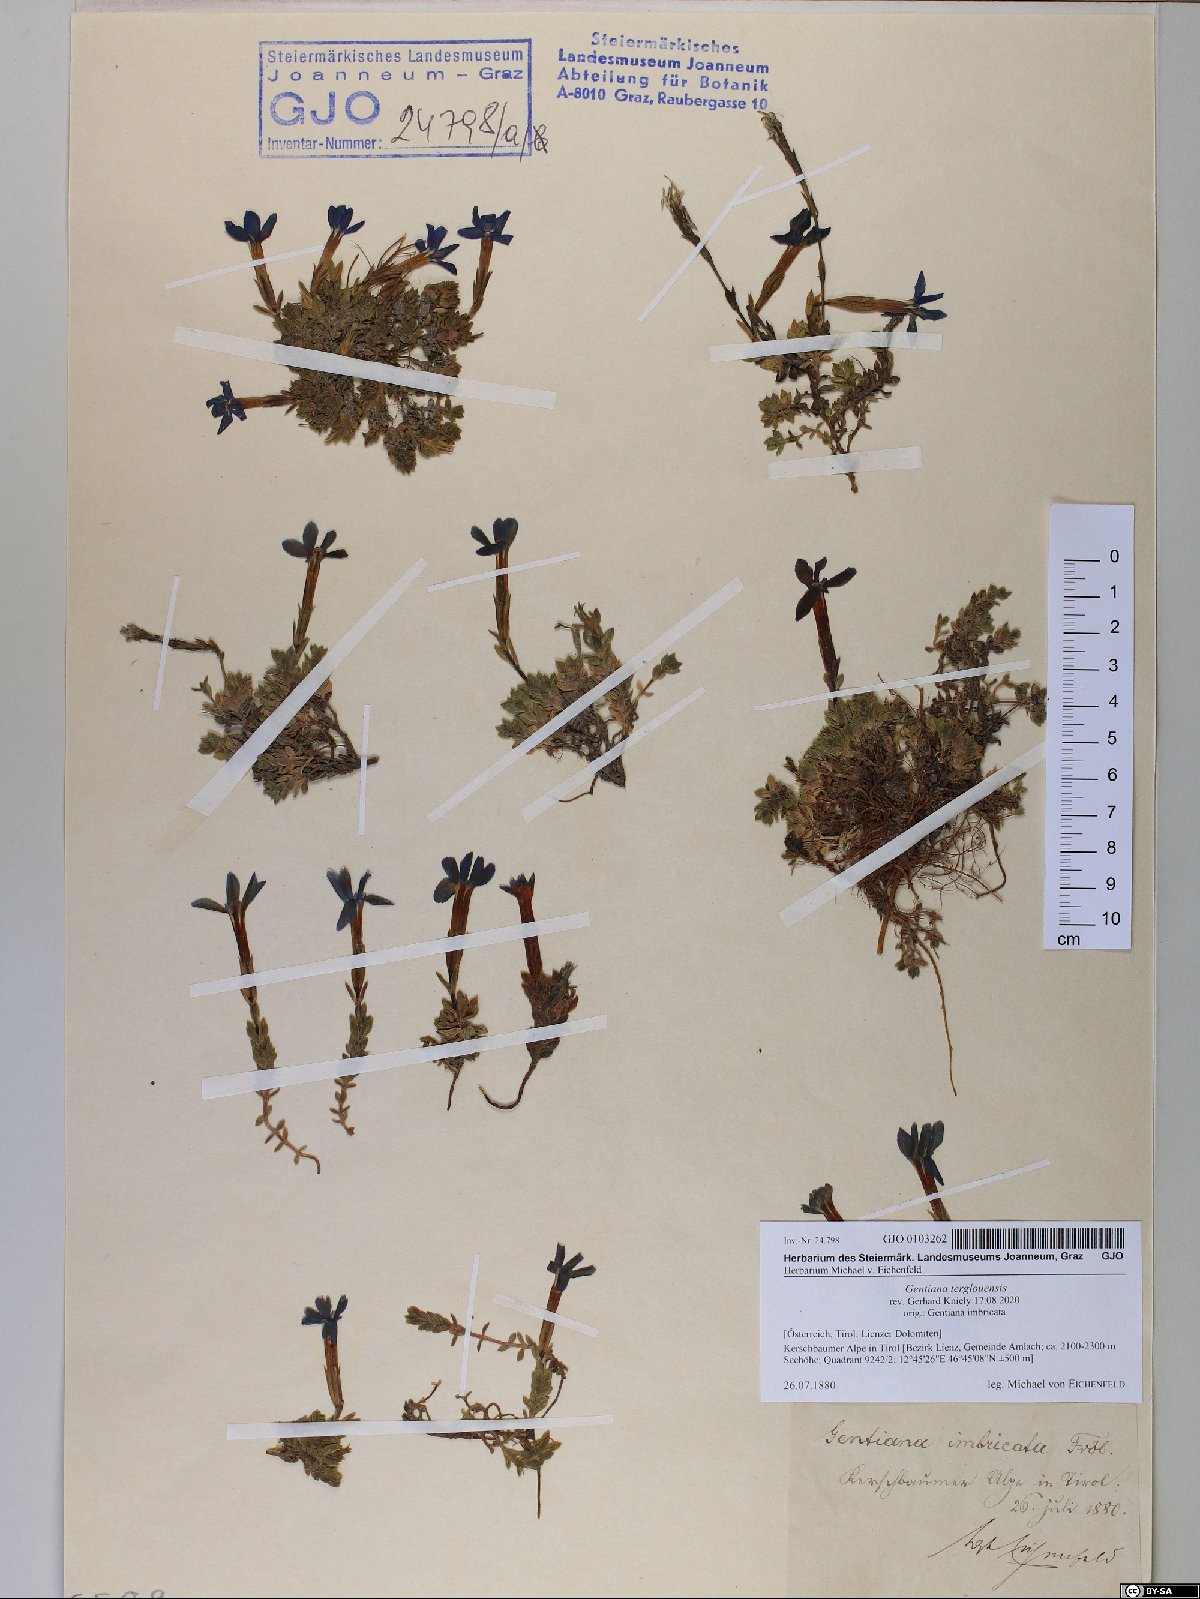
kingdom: Plantae
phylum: Tracheophyta
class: Magnoliopsida
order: Gentianales
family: Gentianaceae
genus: Gentiana
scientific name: Gentiana terglouensis
